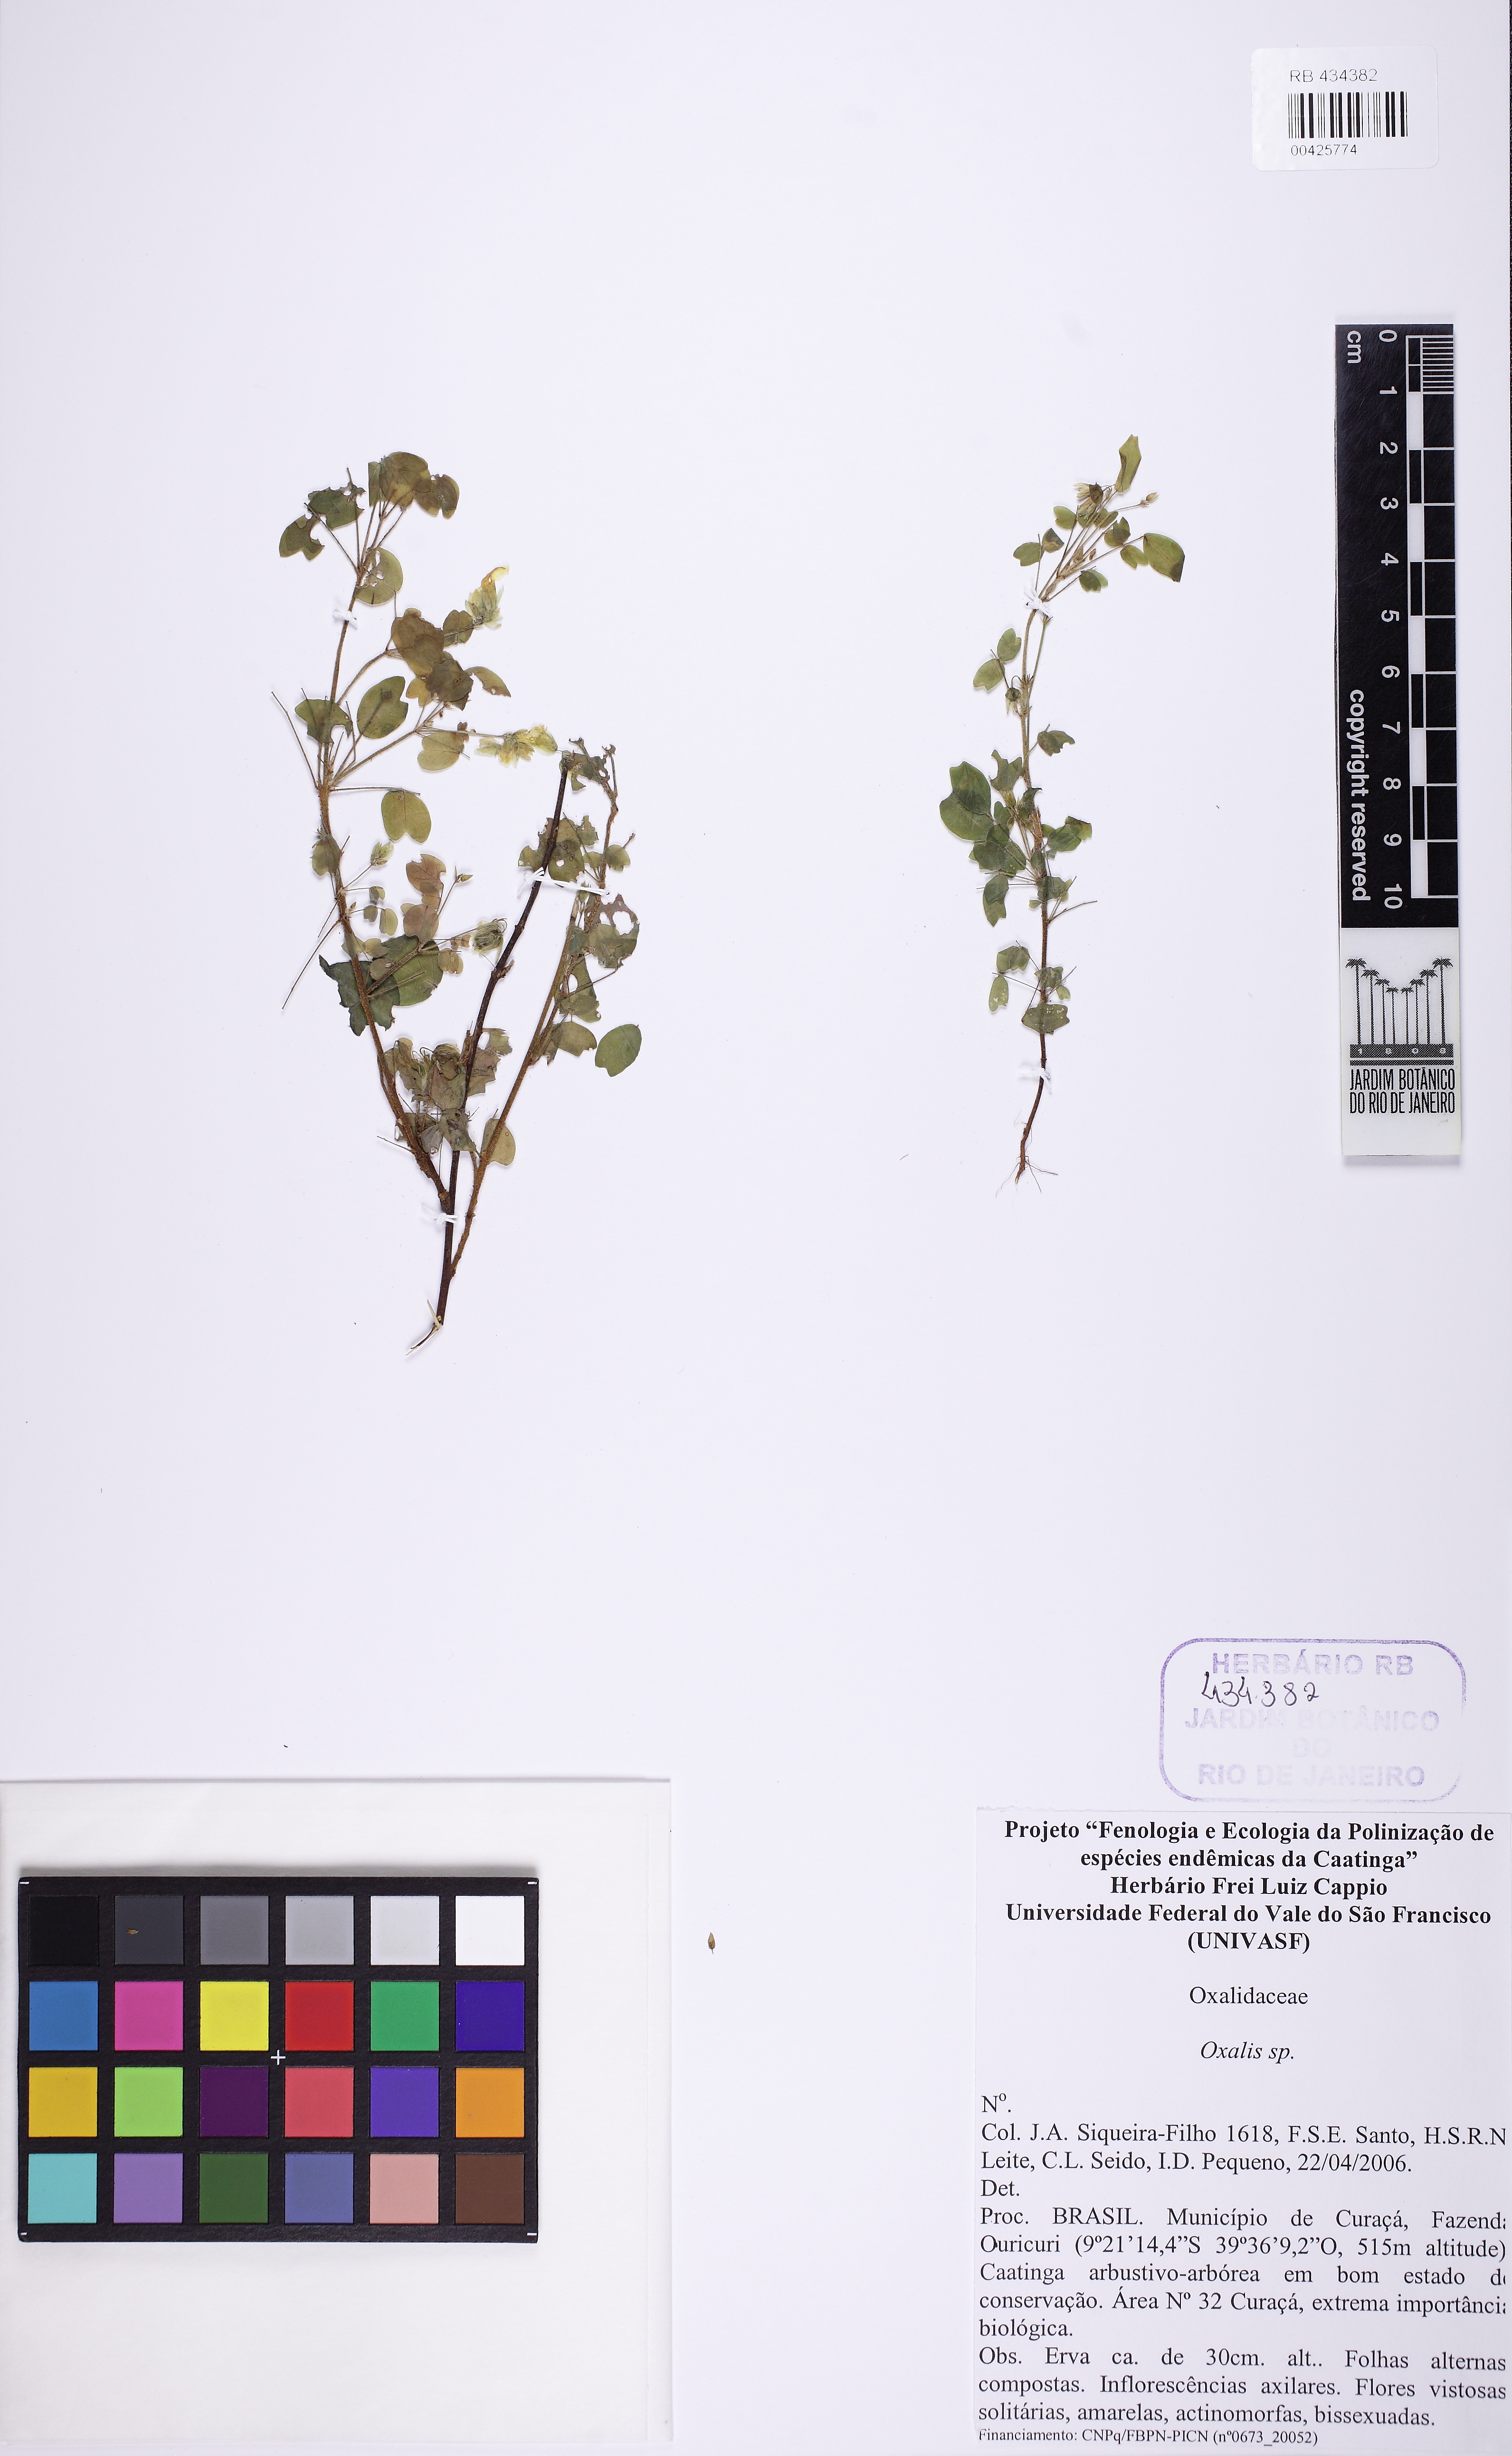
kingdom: Plantae
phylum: Tracheophyta
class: Magnoliopsida
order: Oxalidales
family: Oxalidaceae
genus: Oxalis
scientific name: Oxalis frutescens
